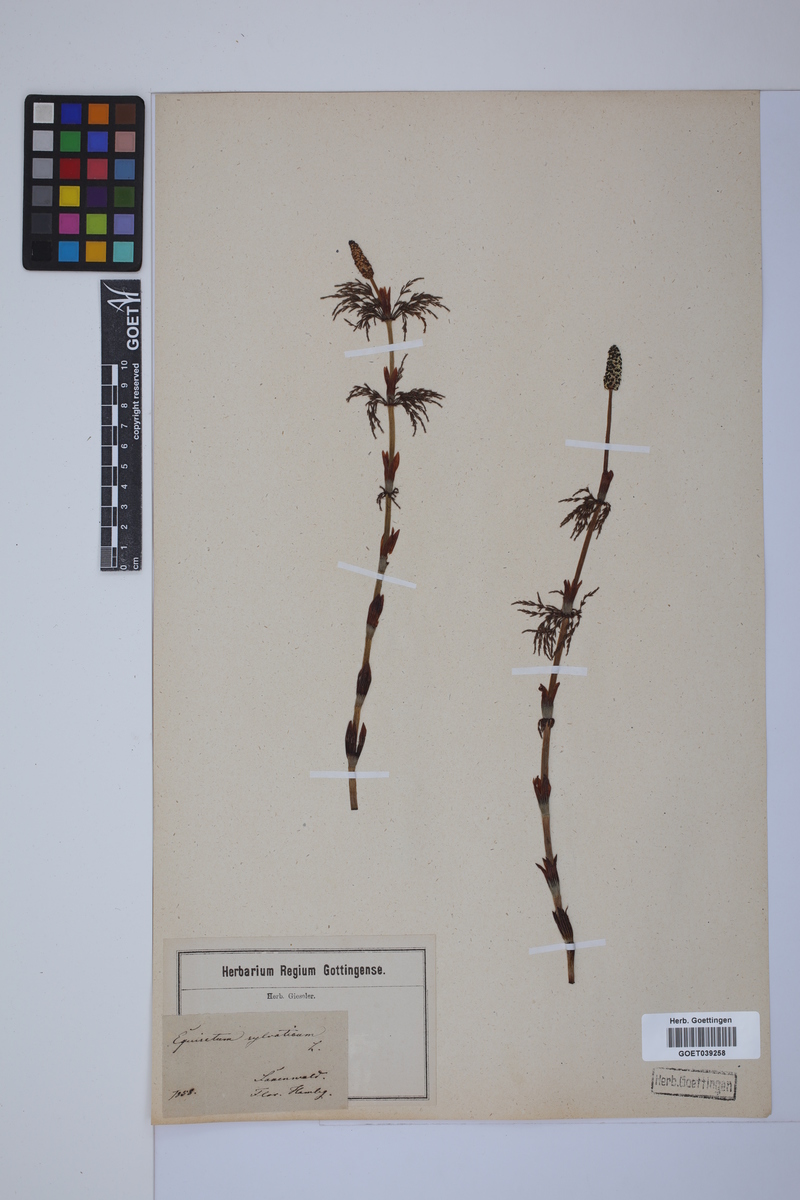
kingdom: Plantae
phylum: Tracheophyta
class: Polypodiopsida
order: Equisetales
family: Equisetaceae
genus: Equisetum
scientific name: Equisetum sylvaticum
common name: Wood horsetail
